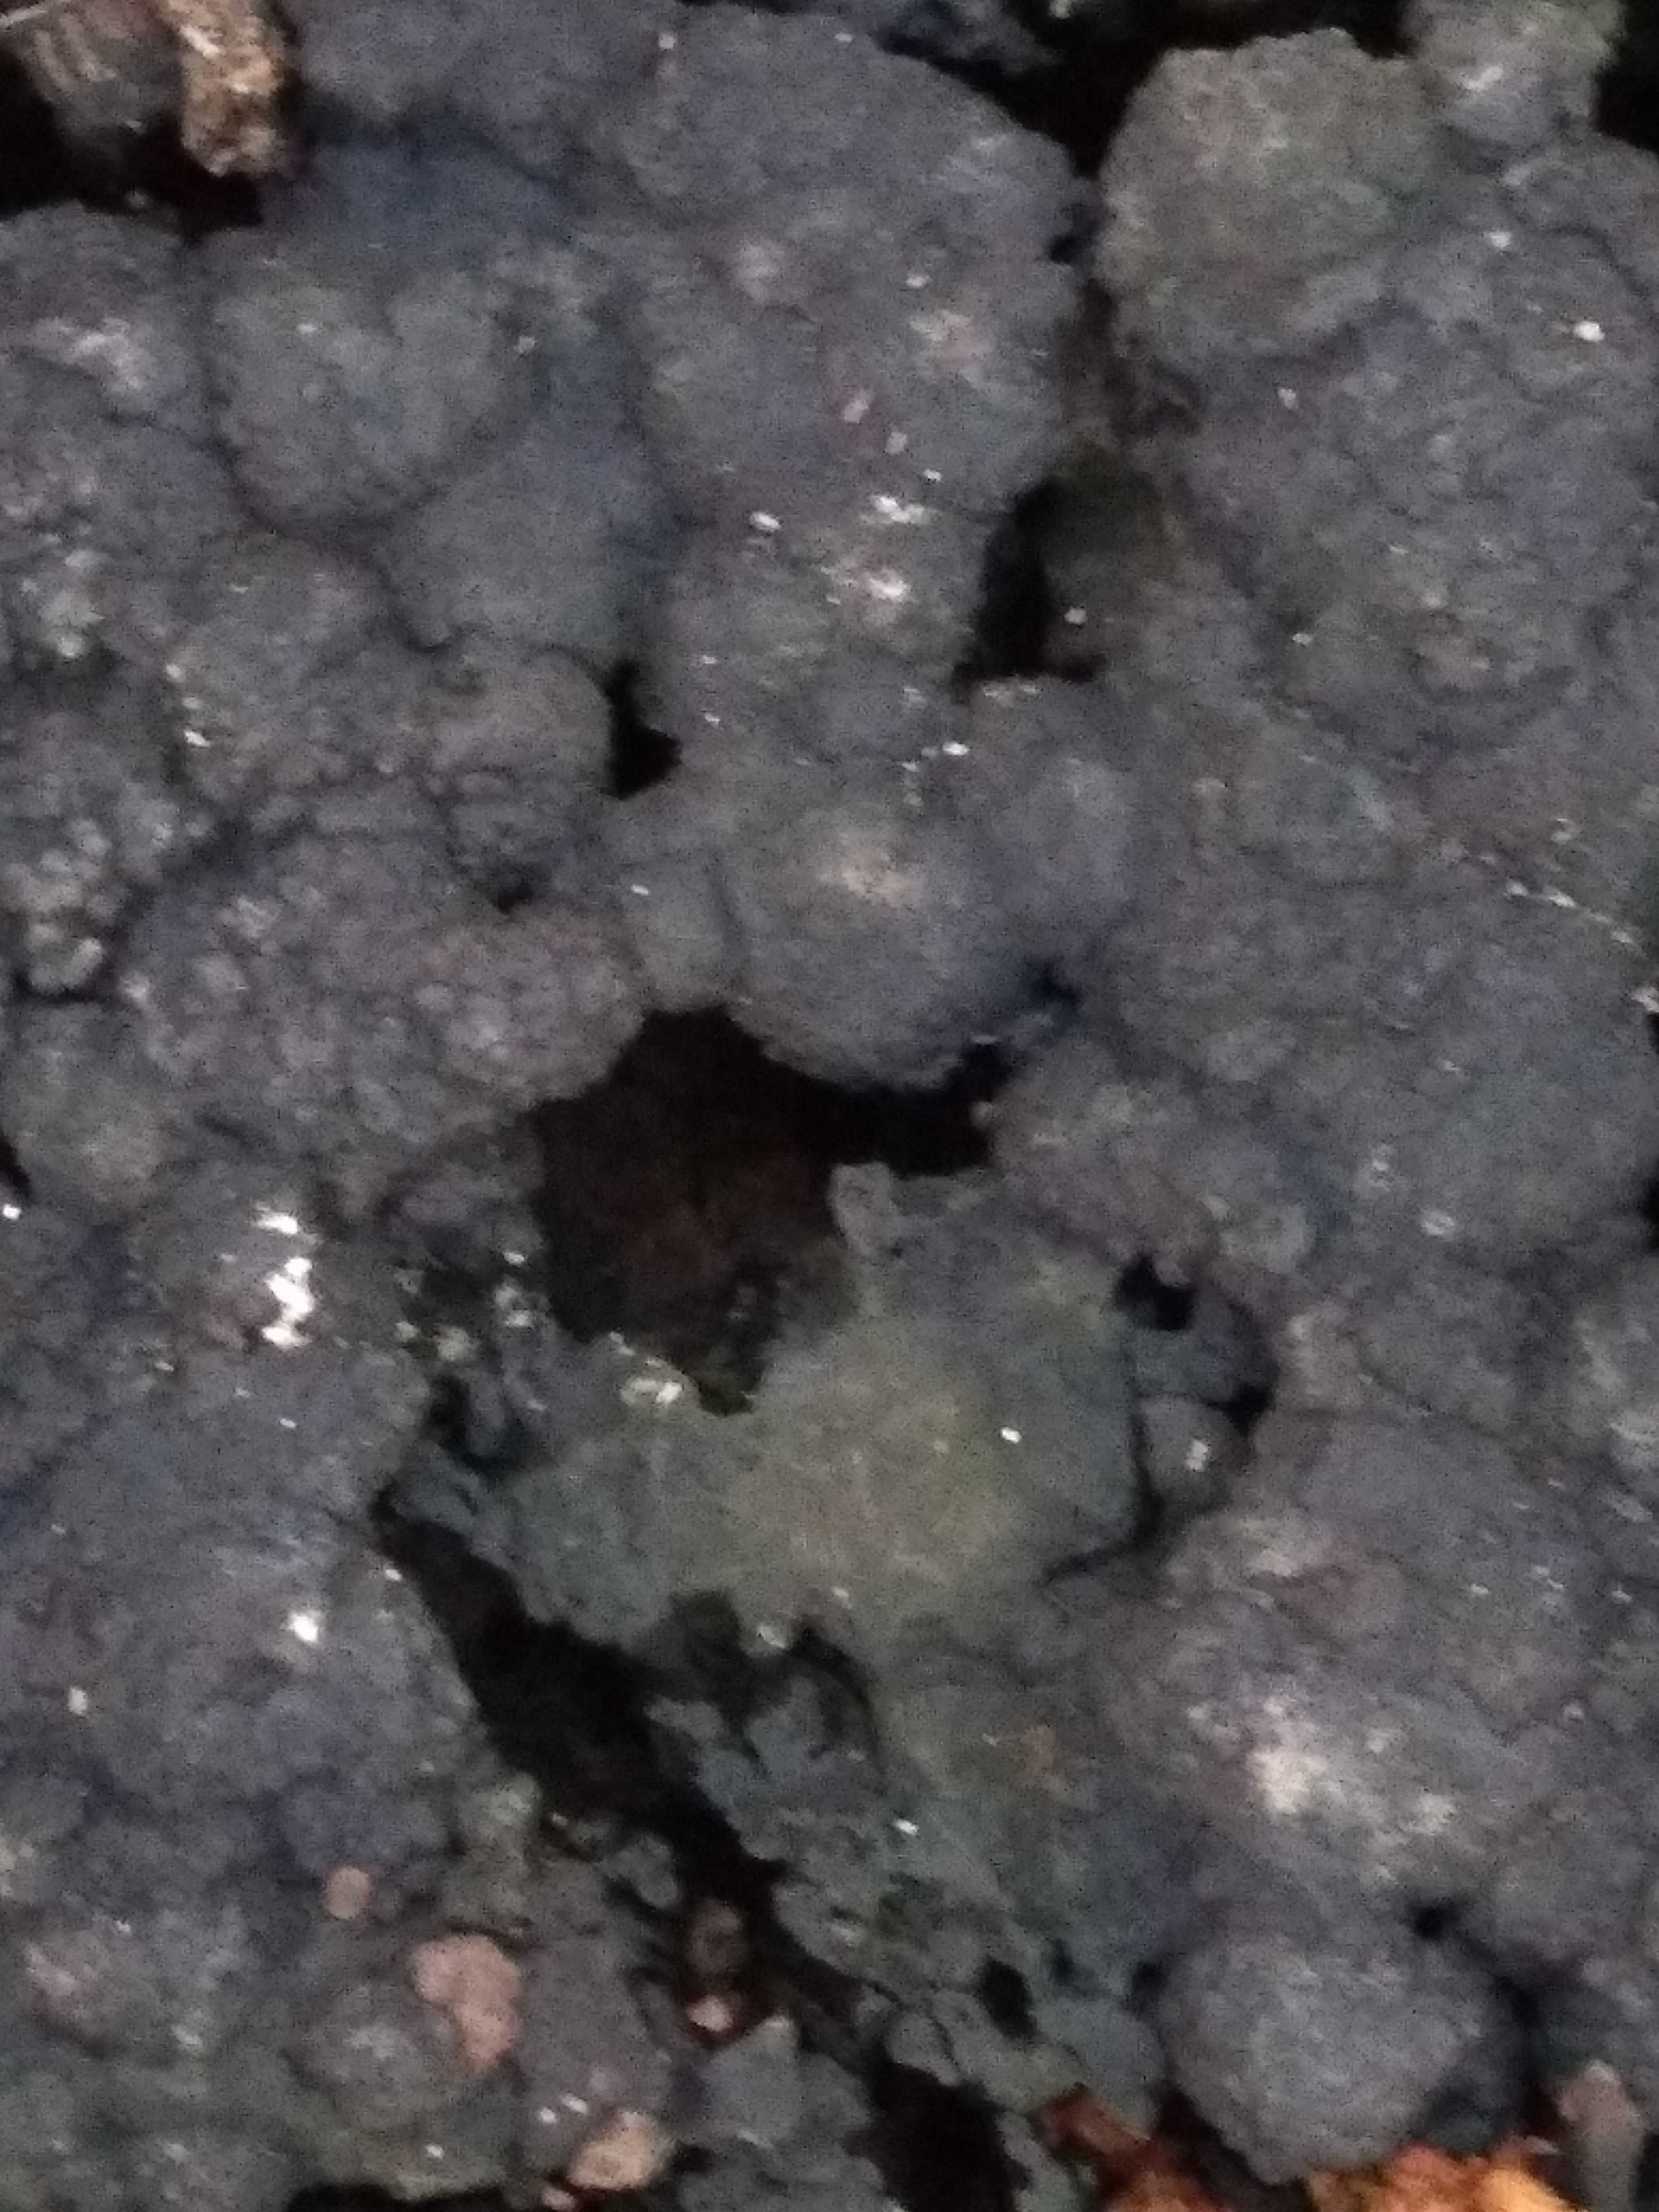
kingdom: Fungi
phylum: Ascomycota
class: Sordariomycetes
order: Xylariales
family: Hypoxylaceae
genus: Jackrogersella
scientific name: Jackrogersella multiformis
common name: foranderlig kulbær
